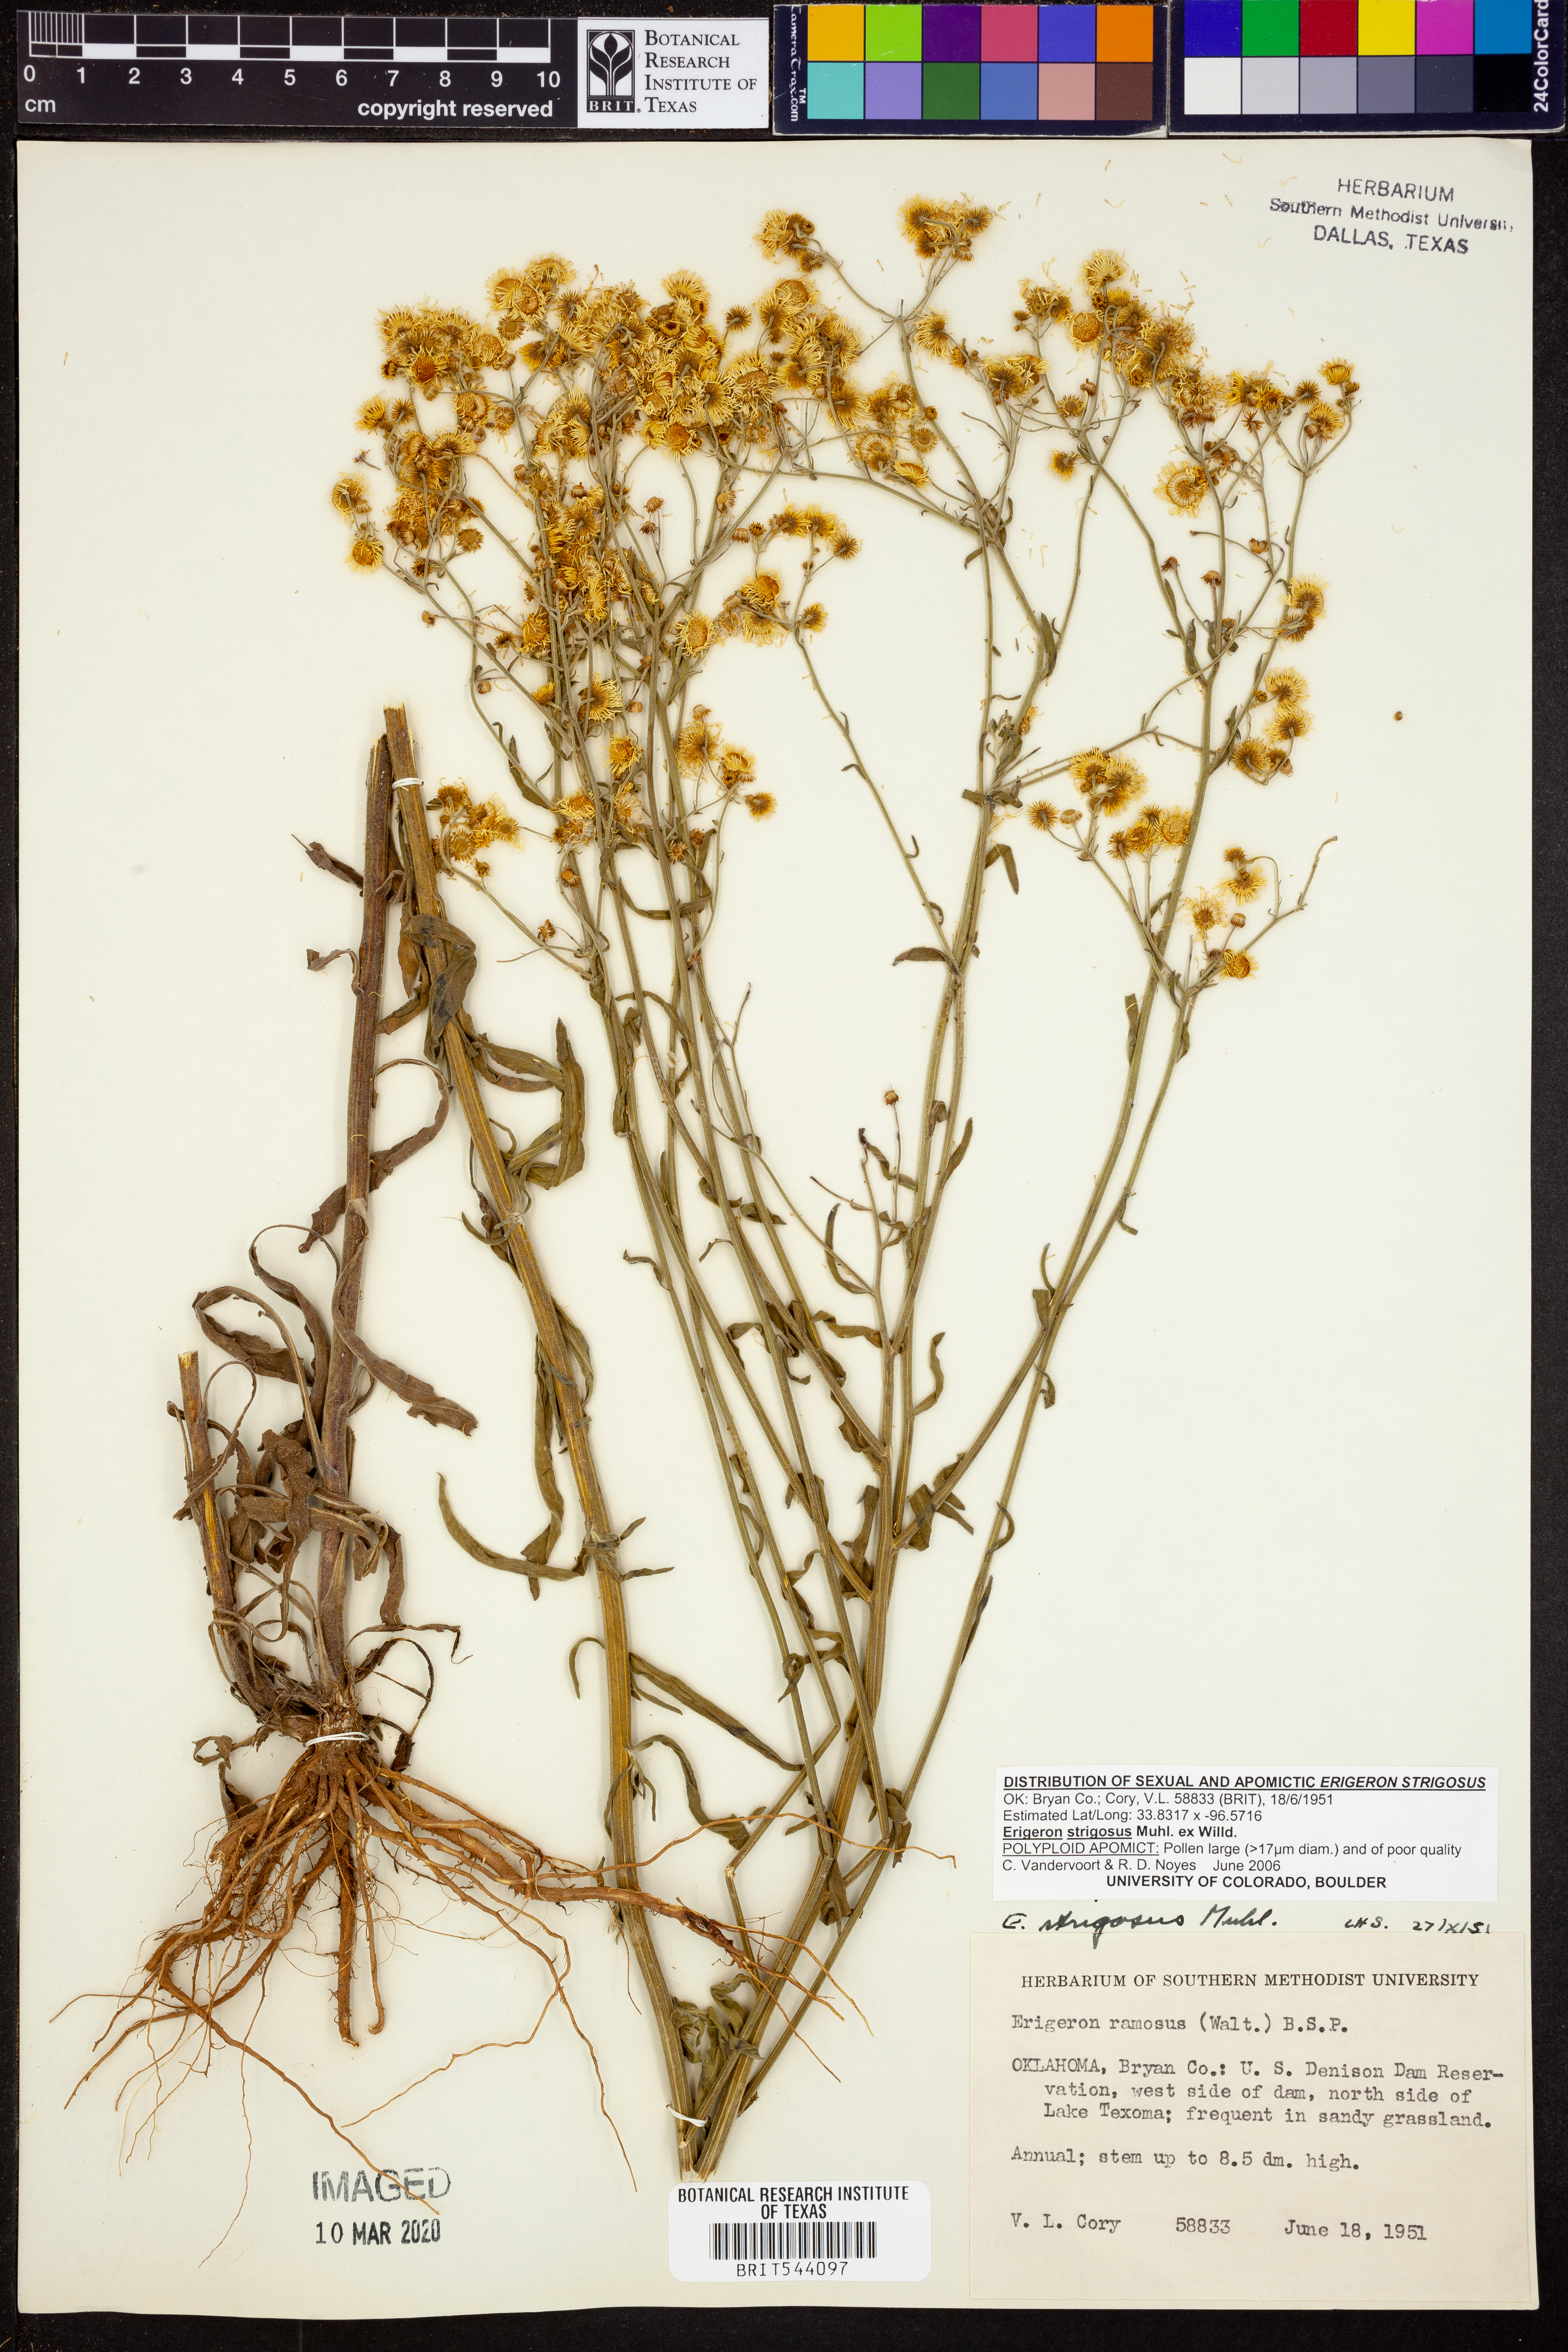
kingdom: Plantae
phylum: Tracheophyta
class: Magnoliopsida
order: Asterales
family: Asteraceae
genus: Erigeron
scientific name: Erigeron strigosus
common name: Common eastern fleabane
